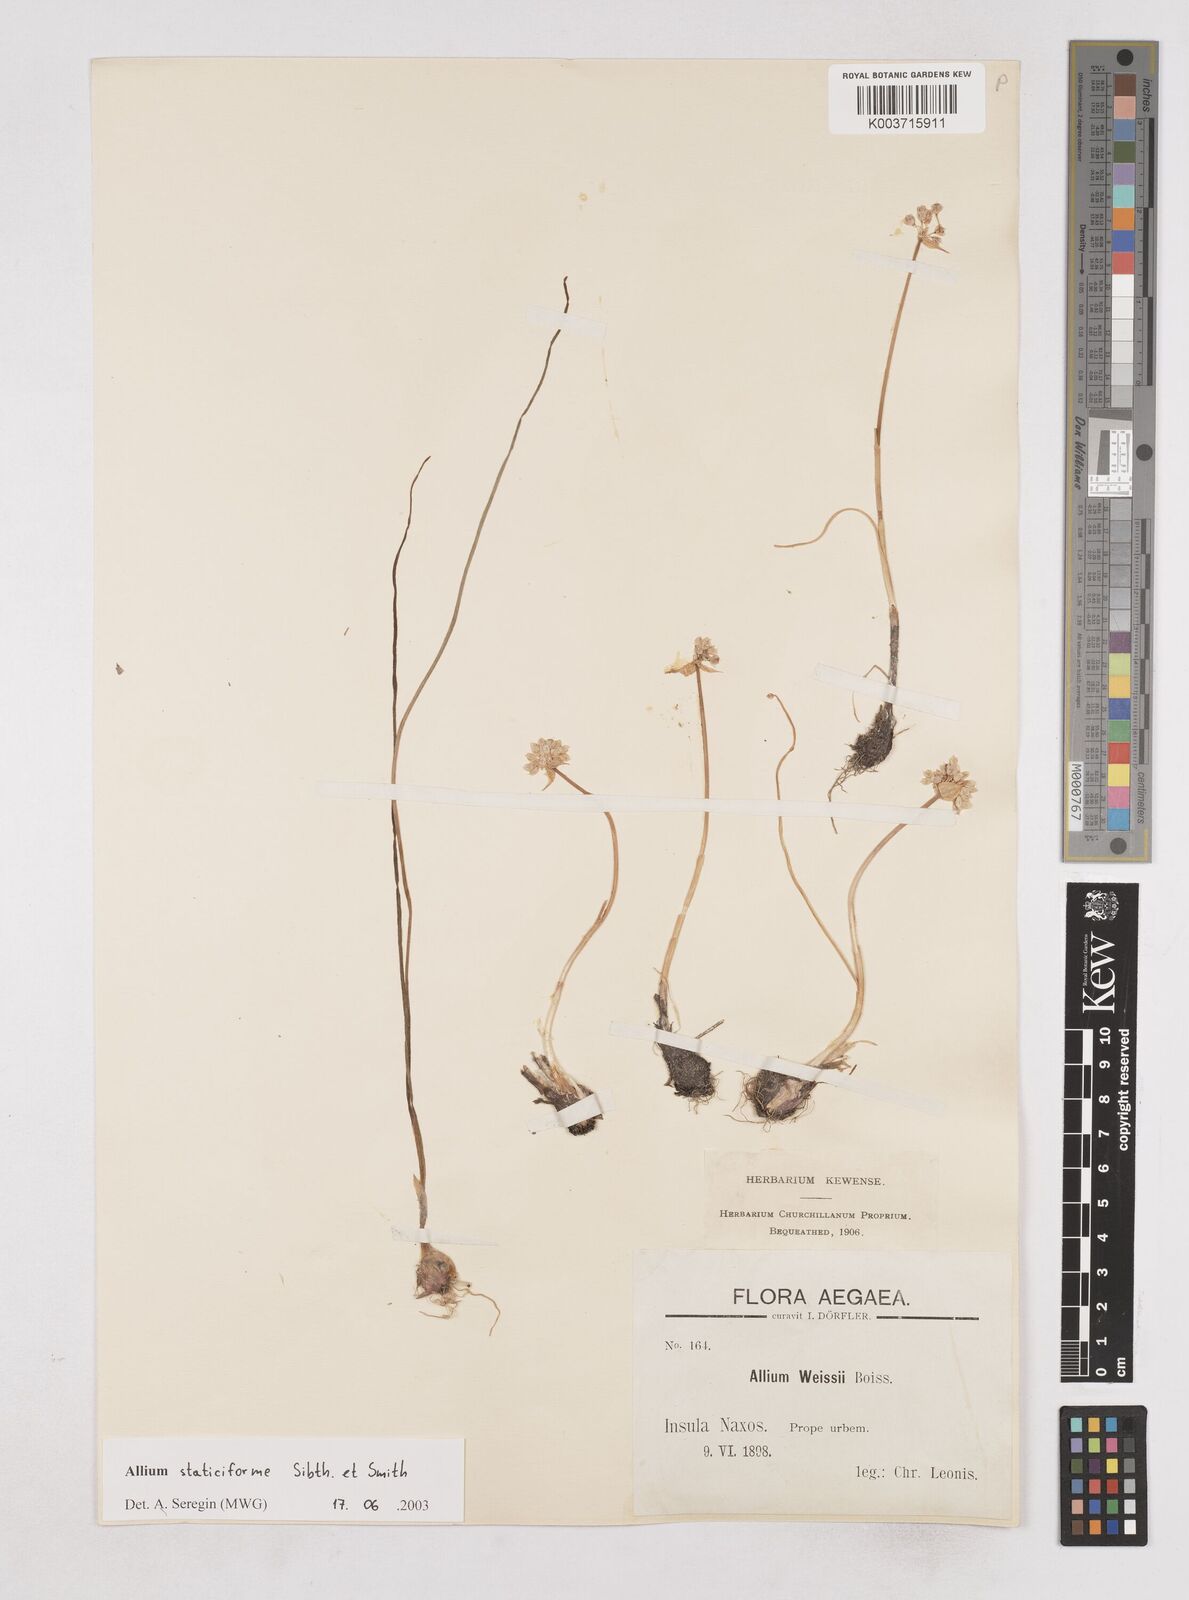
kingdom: Plantae
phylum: Tracheophyta
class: Liliopsida
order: Asparagales
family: Amaryllidaceae
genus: Allium
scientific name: Allium staticiforme
